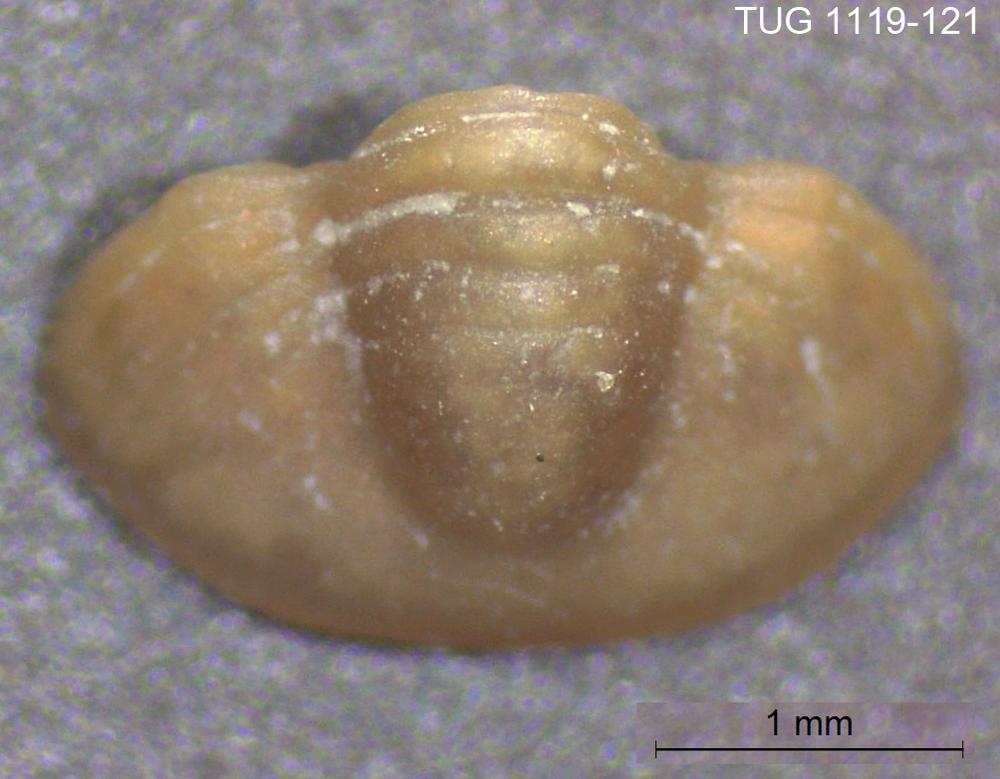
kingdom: Animalia
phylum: Arthropoda
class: Trilobita
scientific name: Trilobita
